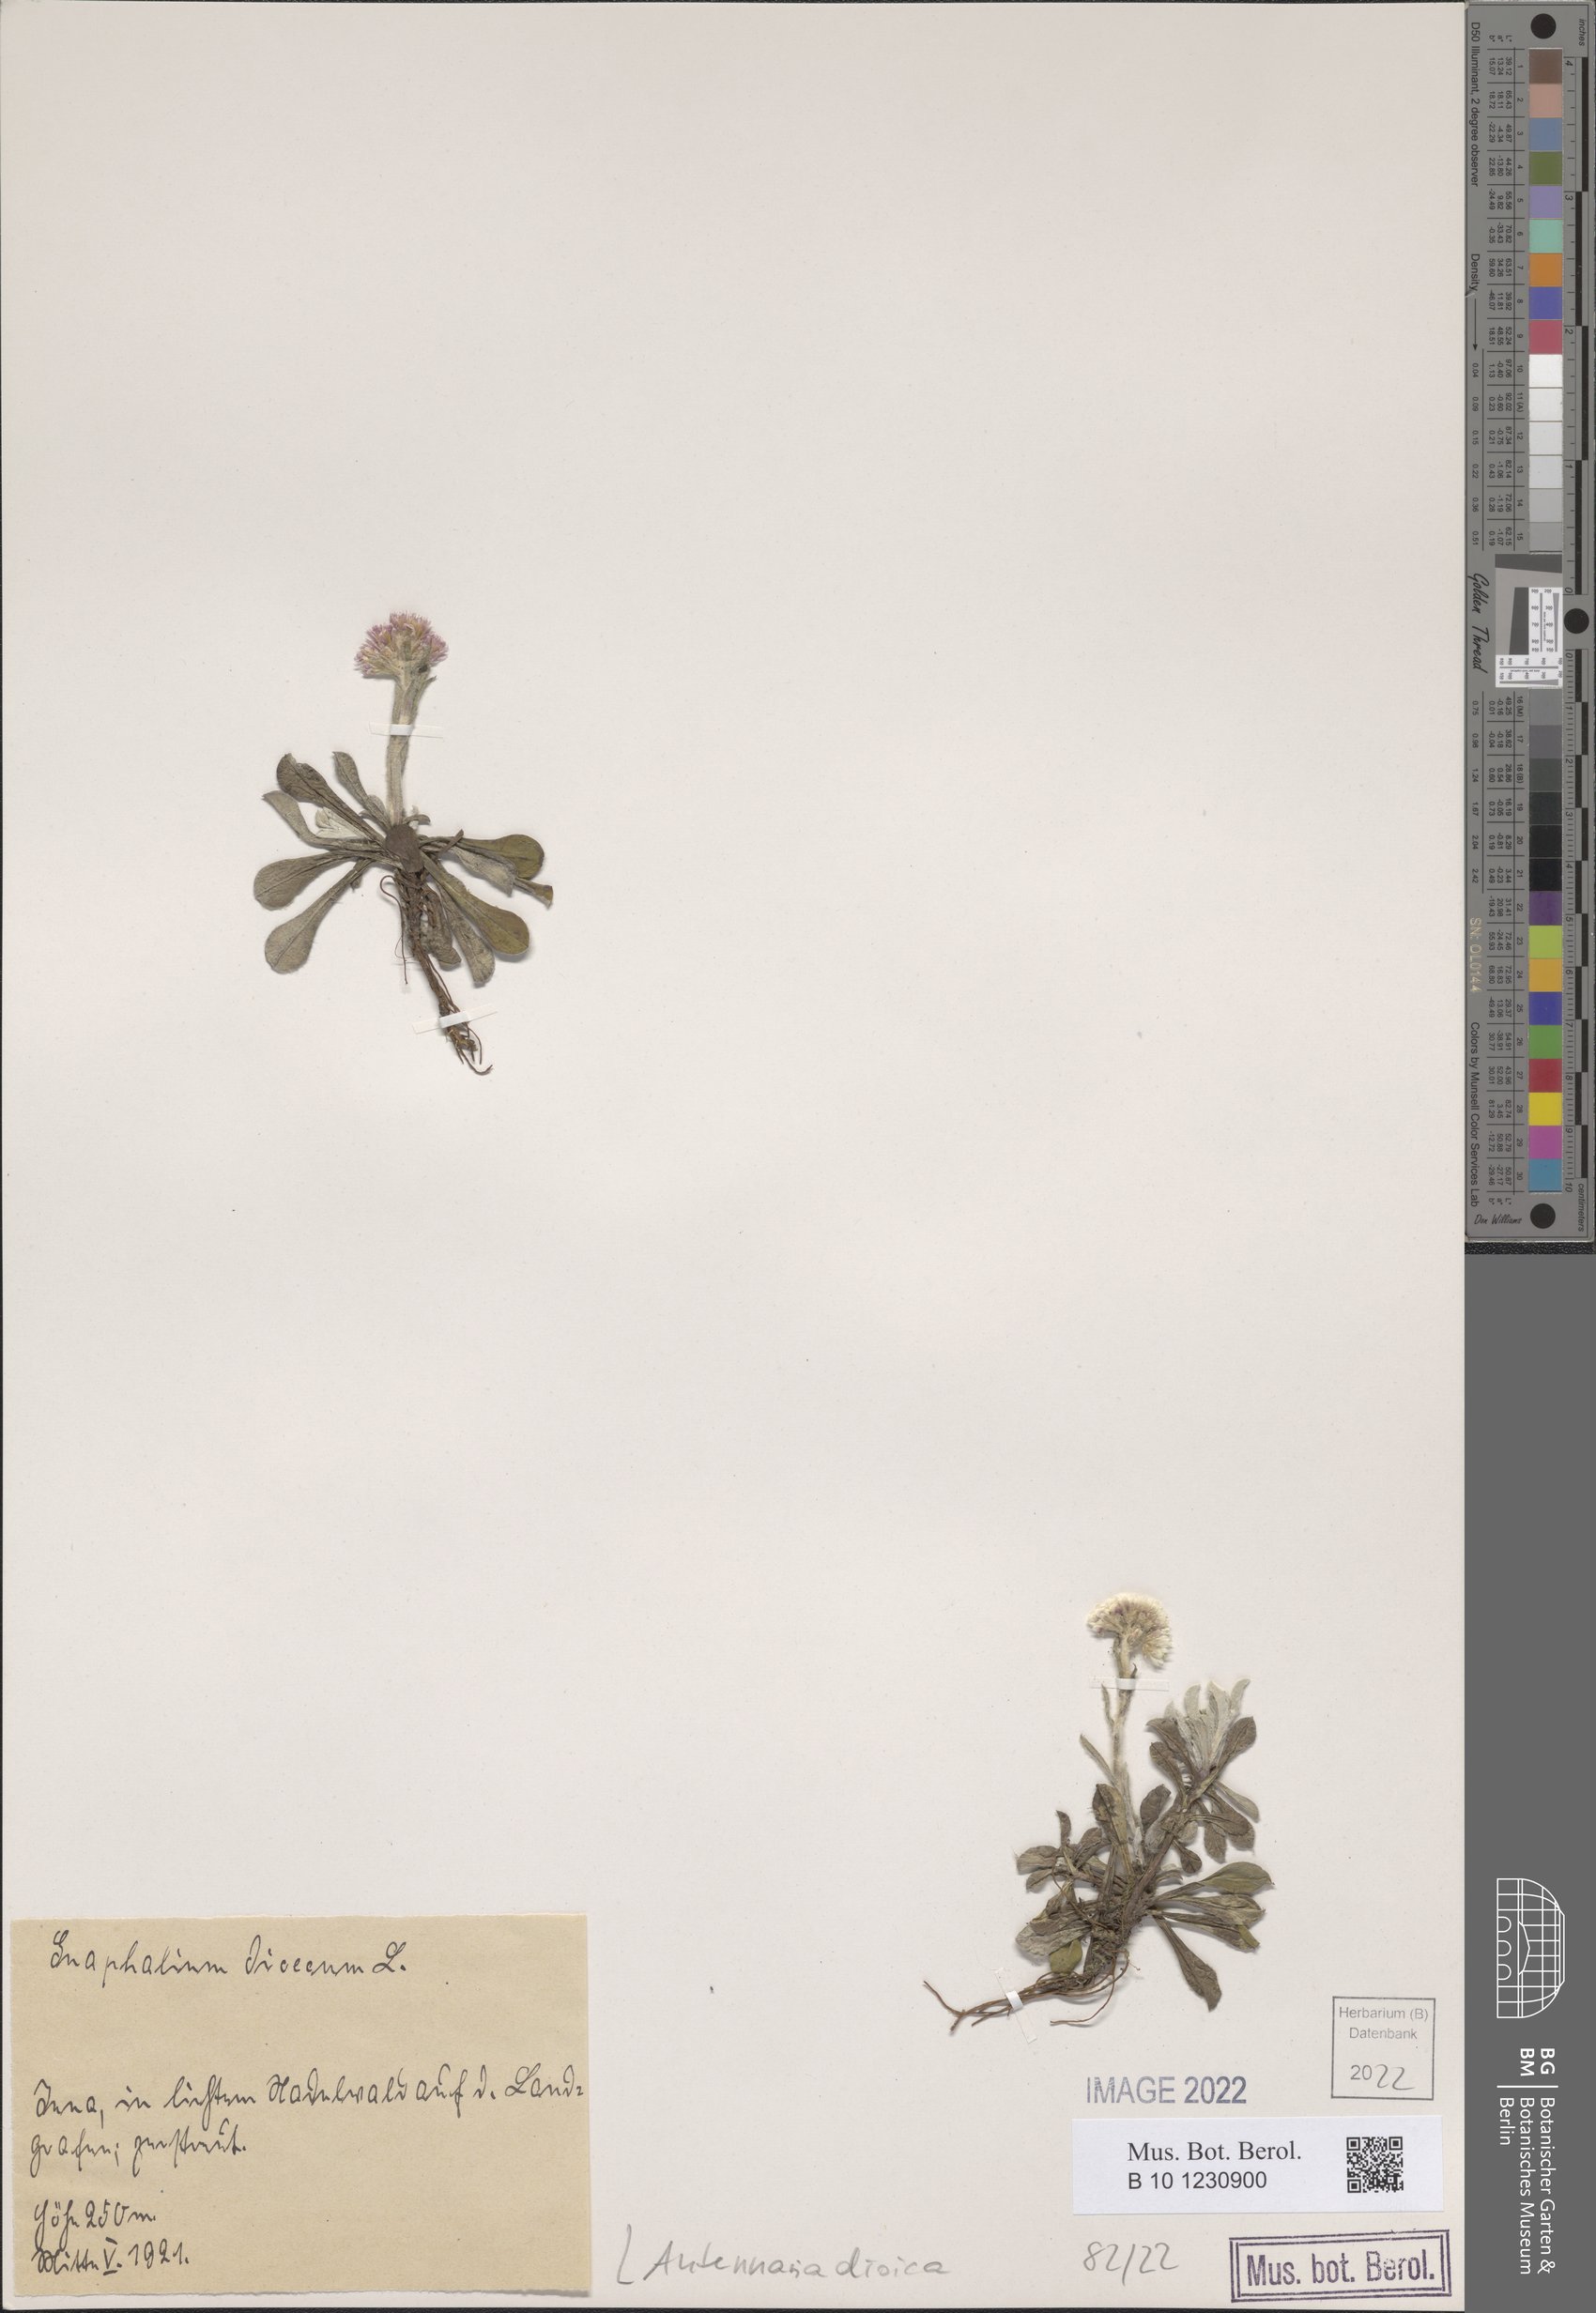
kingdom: Plantae
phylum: Tracheophyta
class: Magnoliopsida
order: Asterales
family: Asteraceae
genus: Antennaria
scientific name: Antennaria dioica
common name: Mountain everlasting
